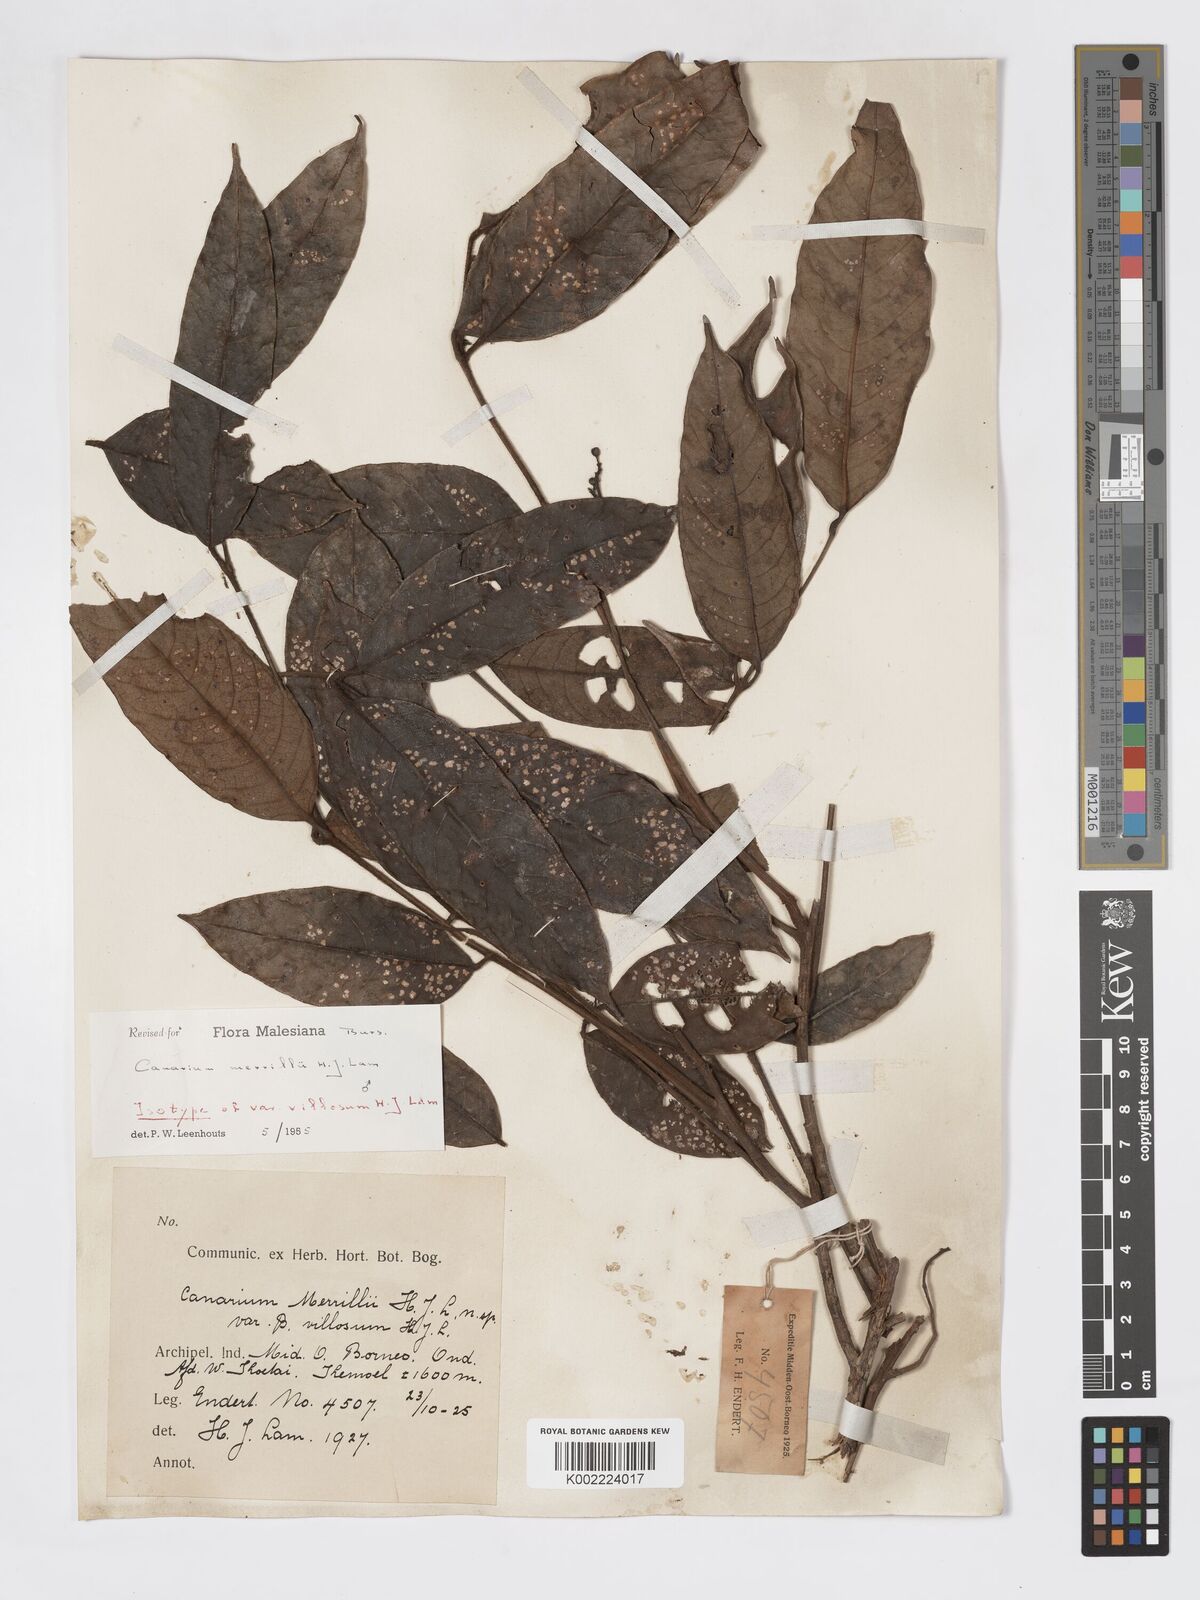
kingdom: Plantae
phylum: Tracheophyta
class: Magnoliopsida
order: Sapindales
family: Burseraceae
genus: Canarium
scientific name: Canarium merrillii
